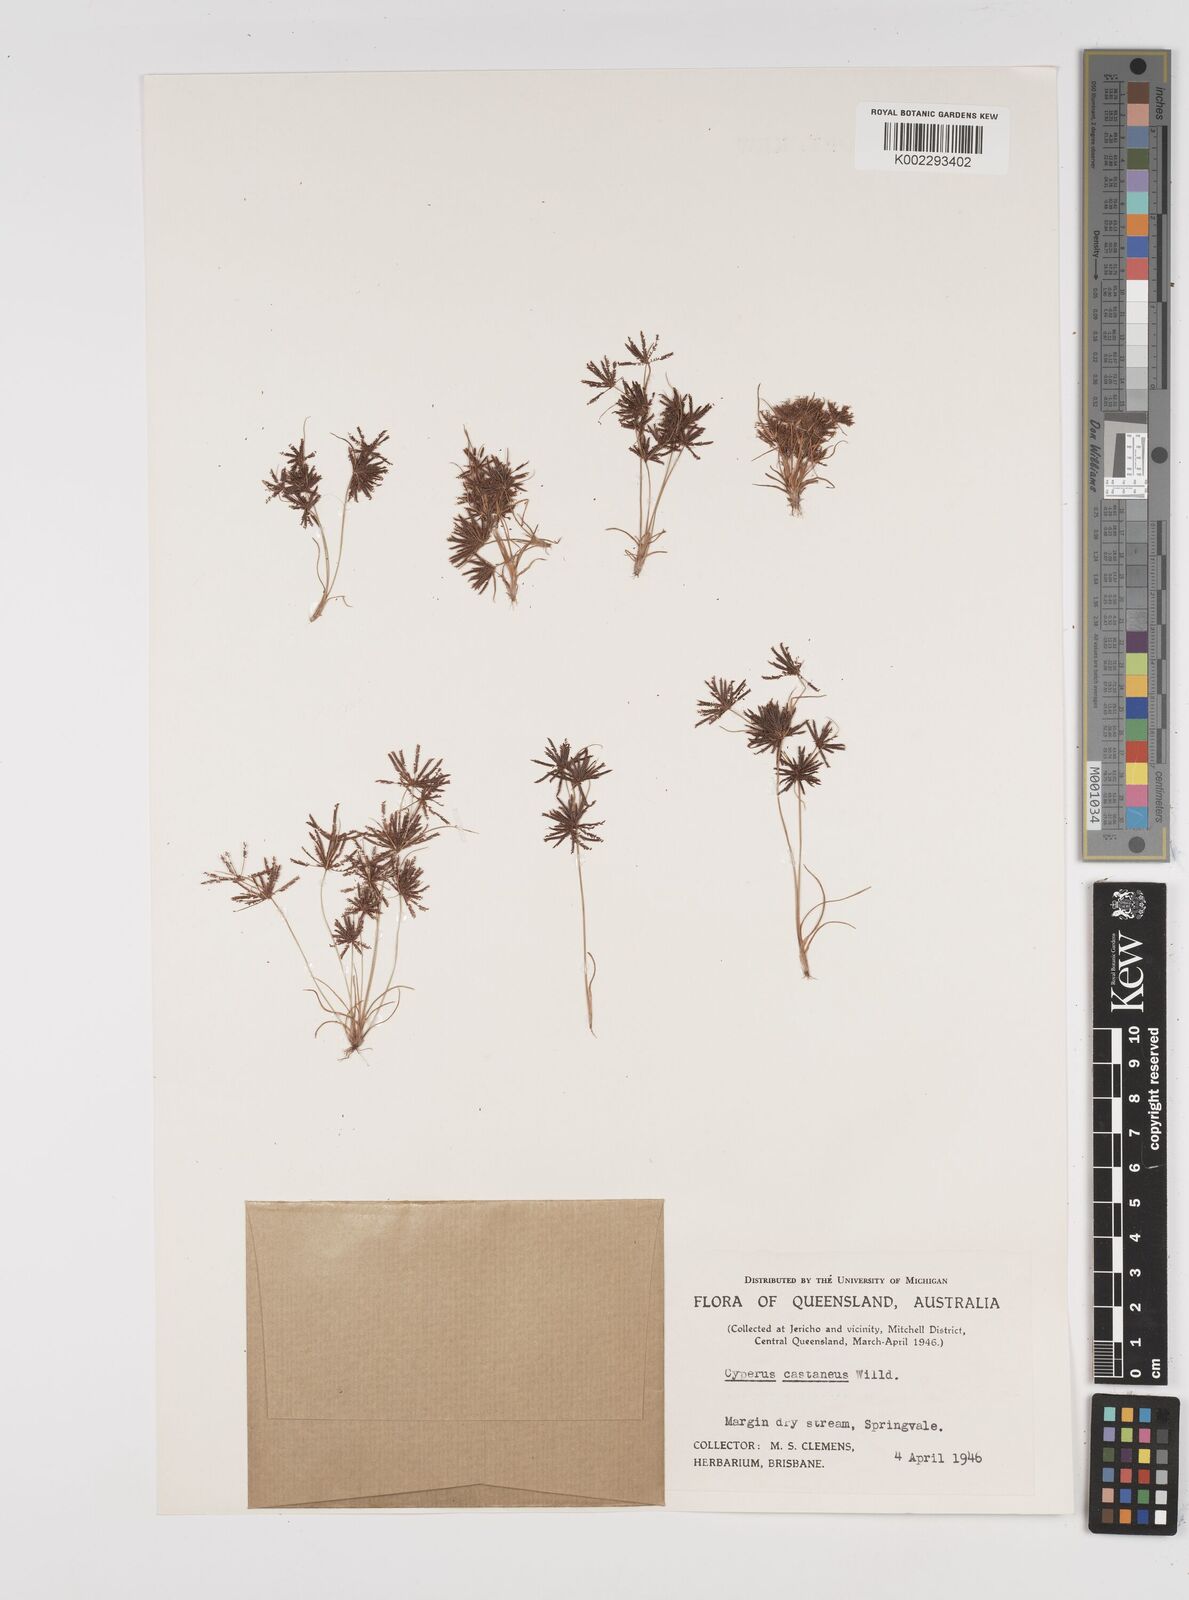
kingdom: Plantae
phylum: Tracheophyta
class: Liliopsida
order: Poales
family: Cyperaceae
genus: Cyperus
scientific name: Cyperus castaneus
